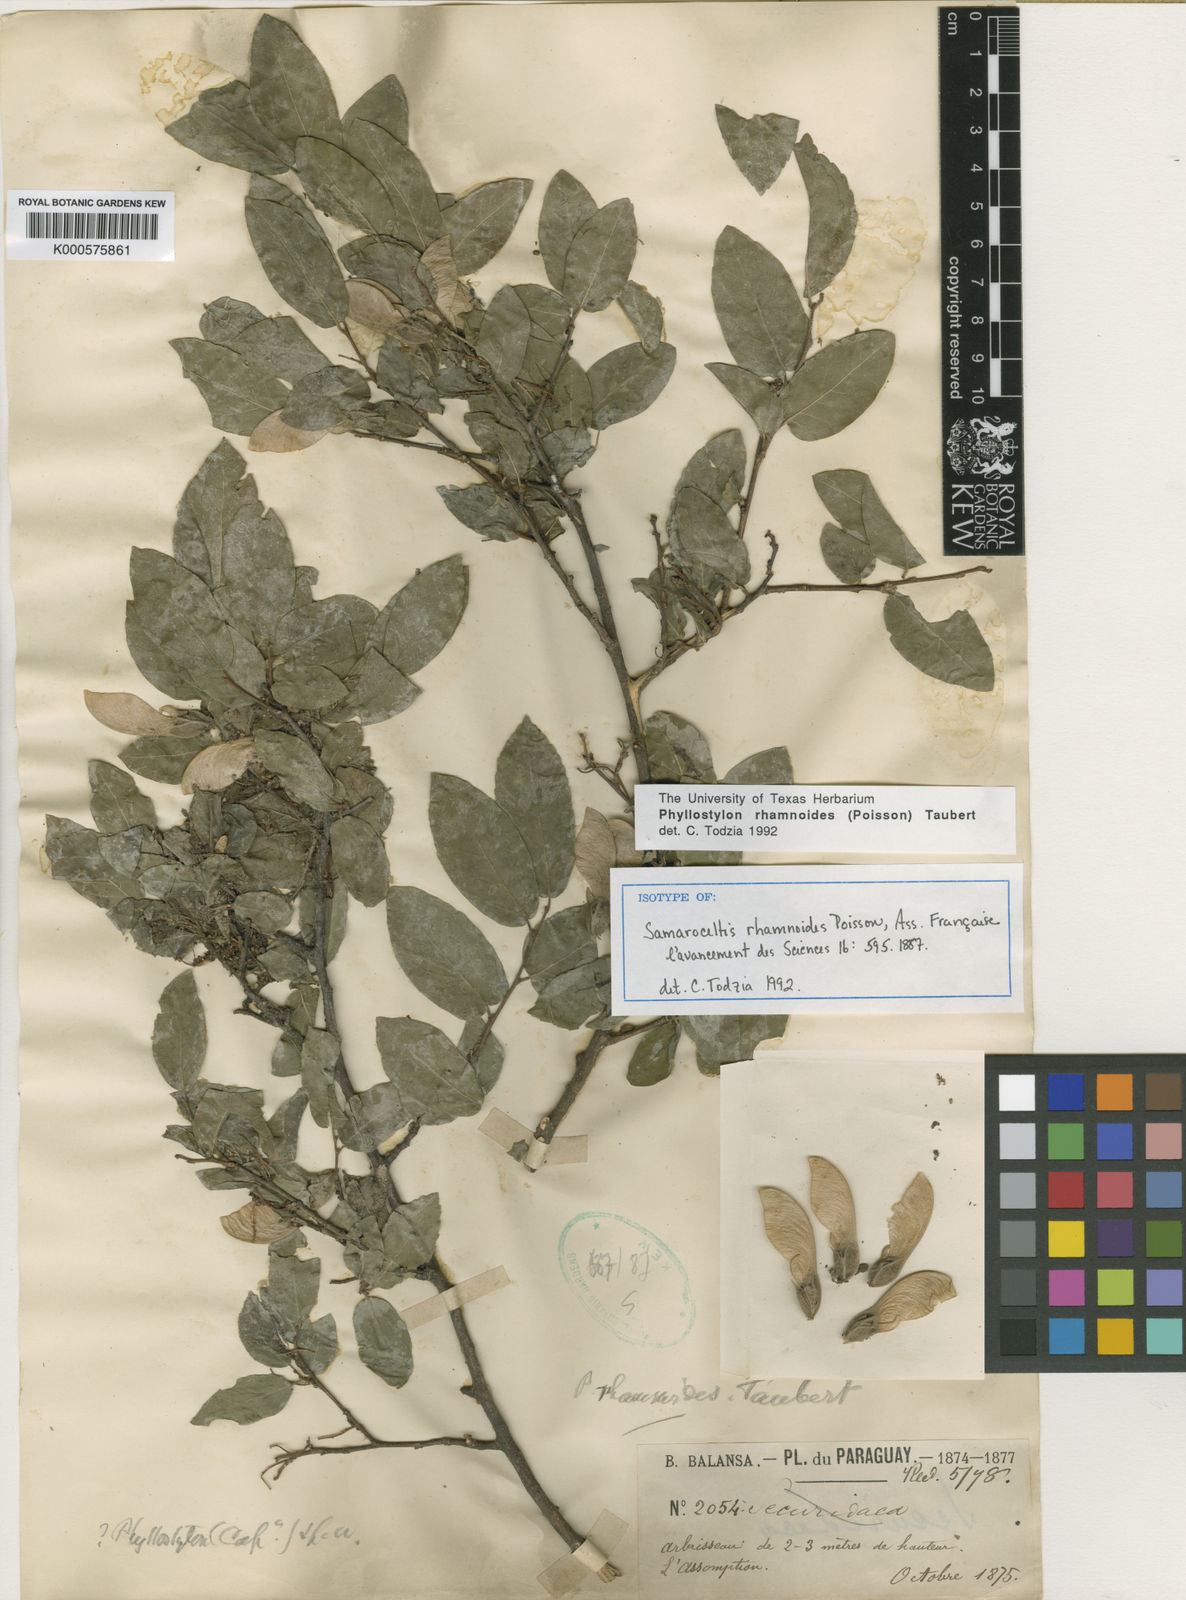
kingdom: Plantae
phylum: Tracheophyta
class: Magnoliopsida
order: Rosales
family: Ulmaceae
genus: Phyllostylon
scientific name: Phyllostylon rhamnoides
